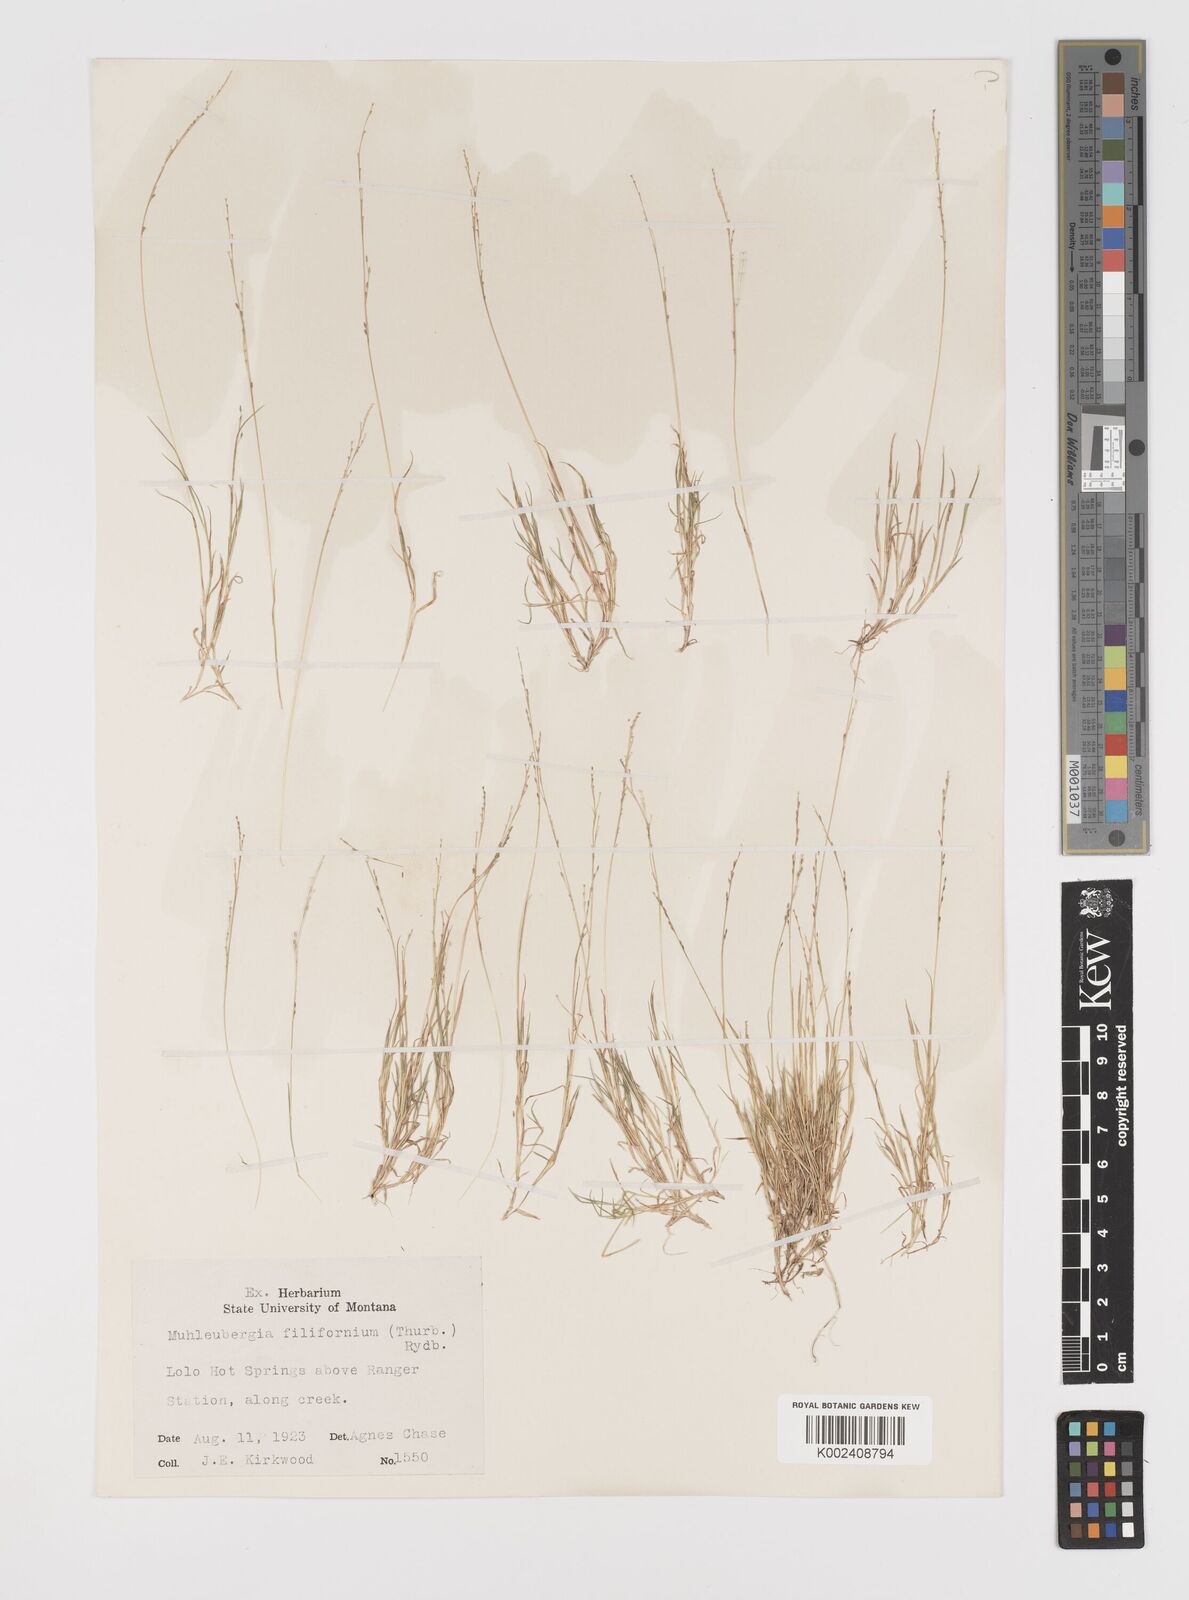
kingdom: Plantae
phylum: Tracheophyta
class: Liliopsida
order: Poales
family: Poaceae
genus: Leptochloa
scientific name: Leptochloa mucronata
